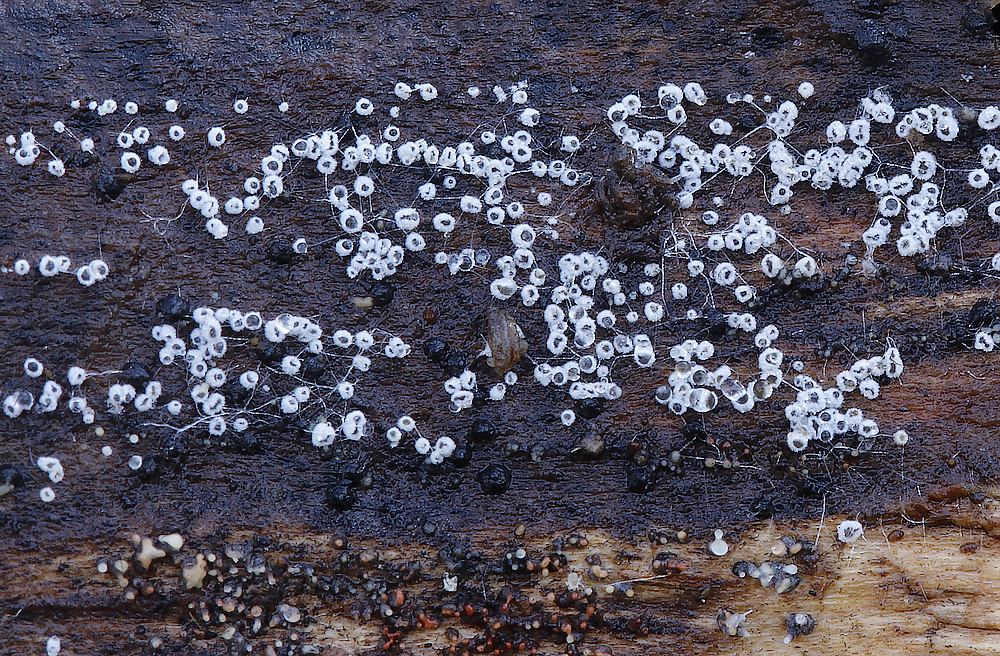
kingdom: Fungi
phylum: Ascomycota
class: Leotiomycetes
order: Helotiales
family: Lachnaceae
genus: Proliferodiscus
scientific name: Proliferodiscus pulveraceus
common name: askegrå frynseskive
